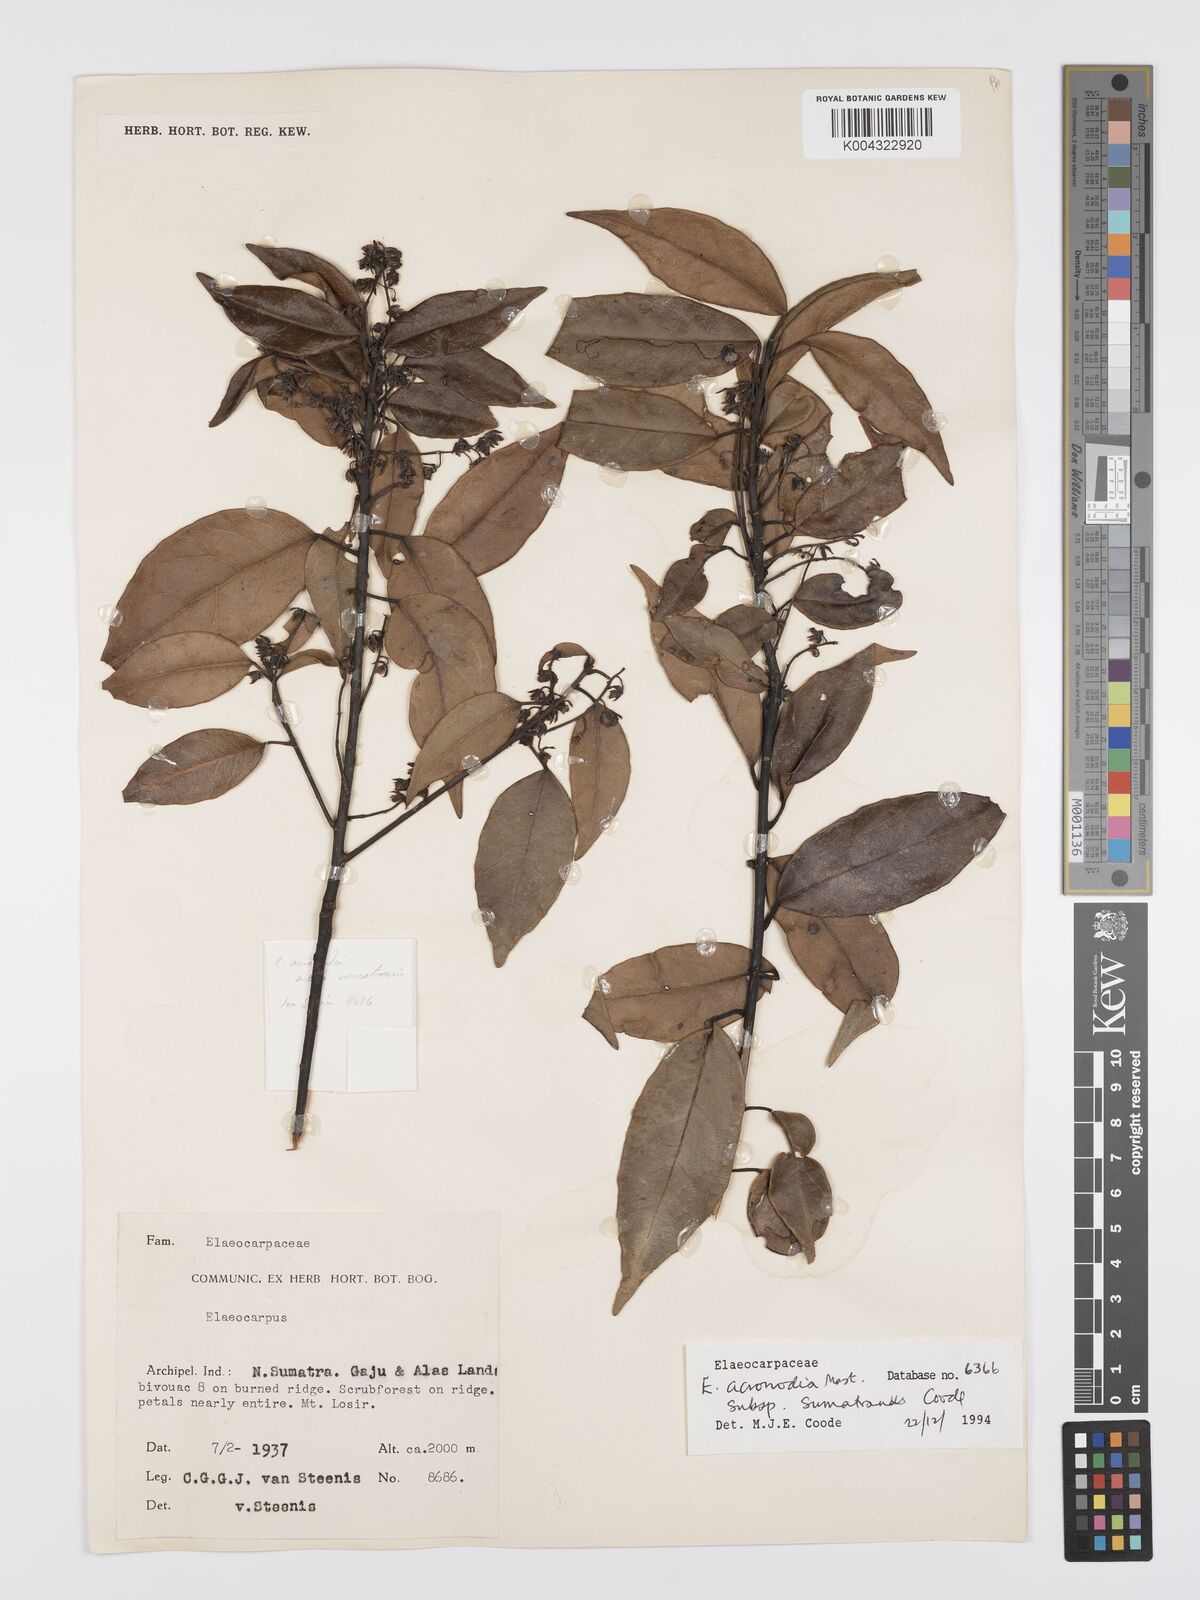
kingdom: Plantae
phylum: Tracheophyta
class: Magnoliopsida
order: Oxalidales
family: Elaeocarpaceae
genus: Elaeocarpus
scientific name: Elaeocarpus acronodia
